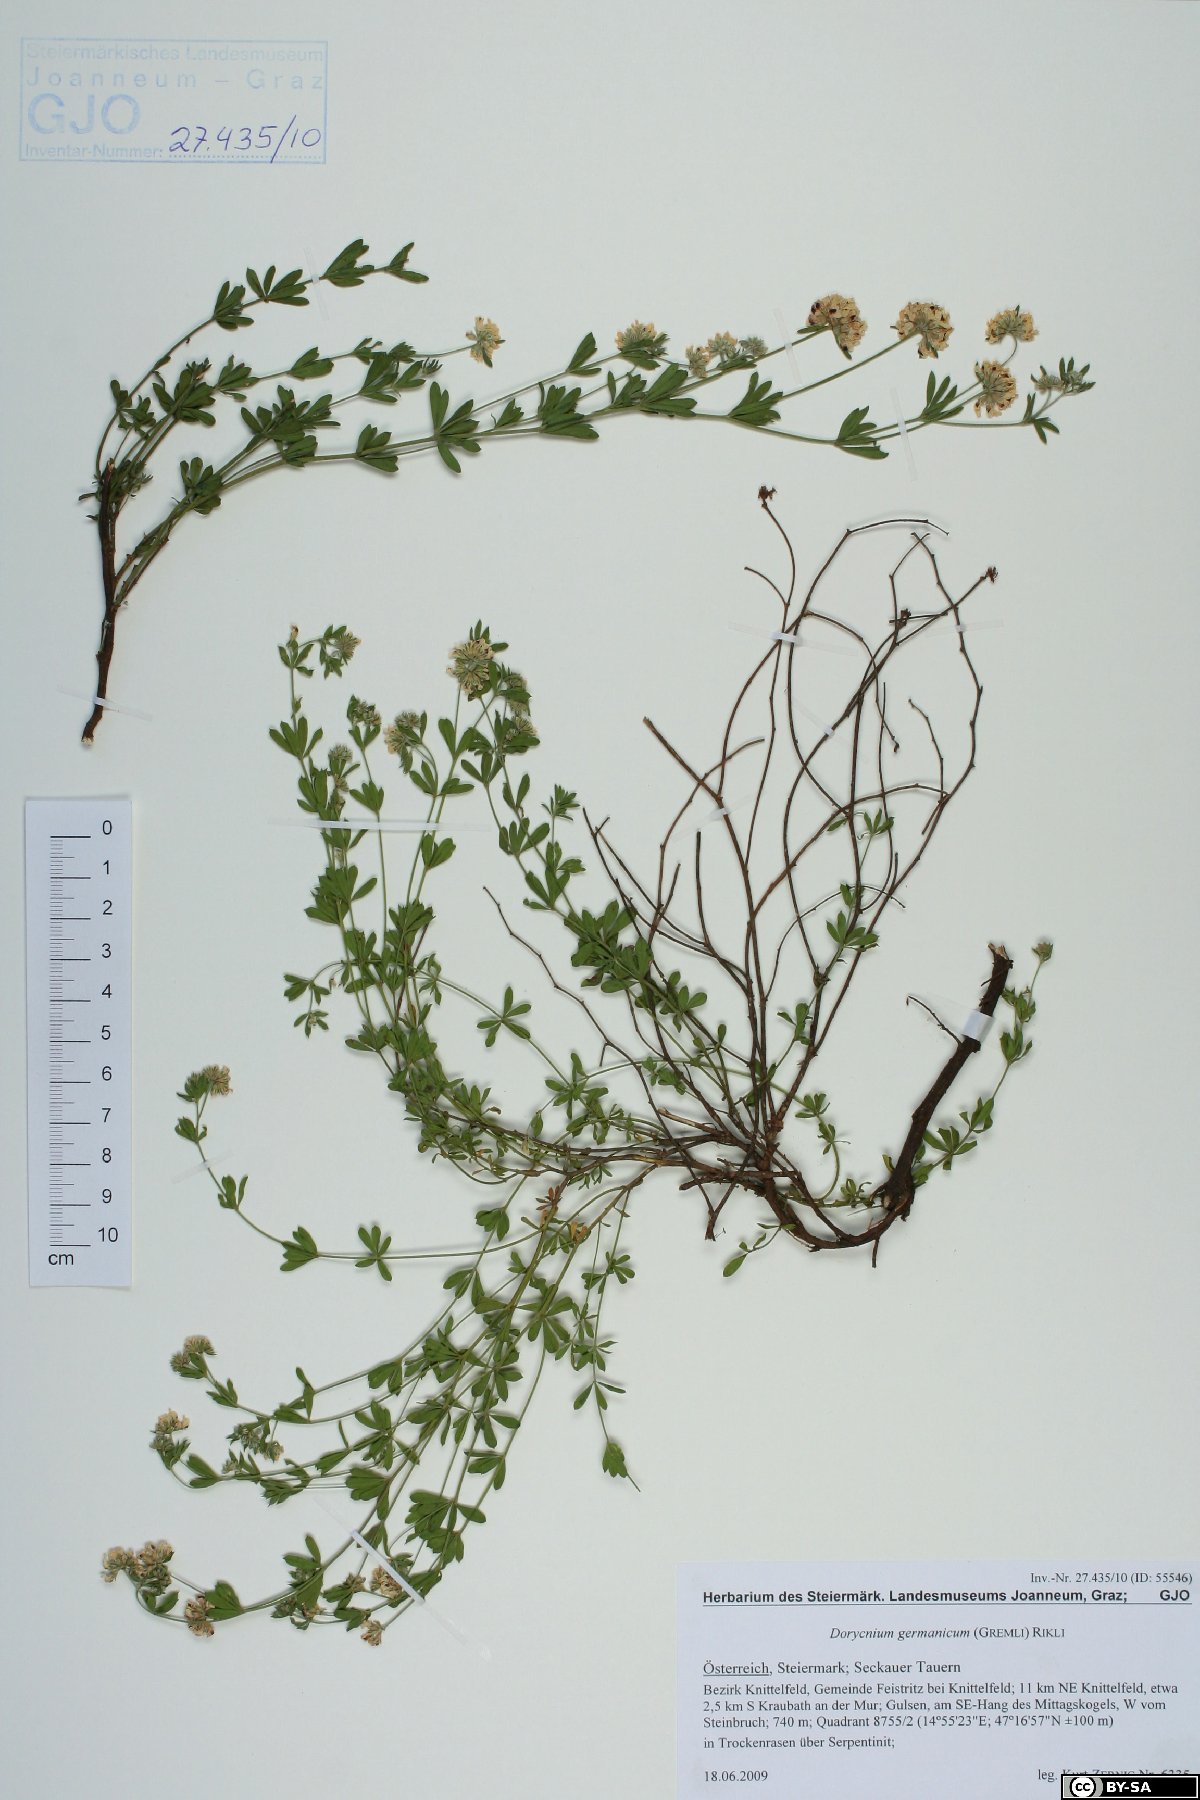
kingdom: Plantae
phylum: Tracheophyta
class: Magnoliopsida
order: Fabales
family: Fabaceae
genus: Lotus
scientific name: Lotus germanicus
